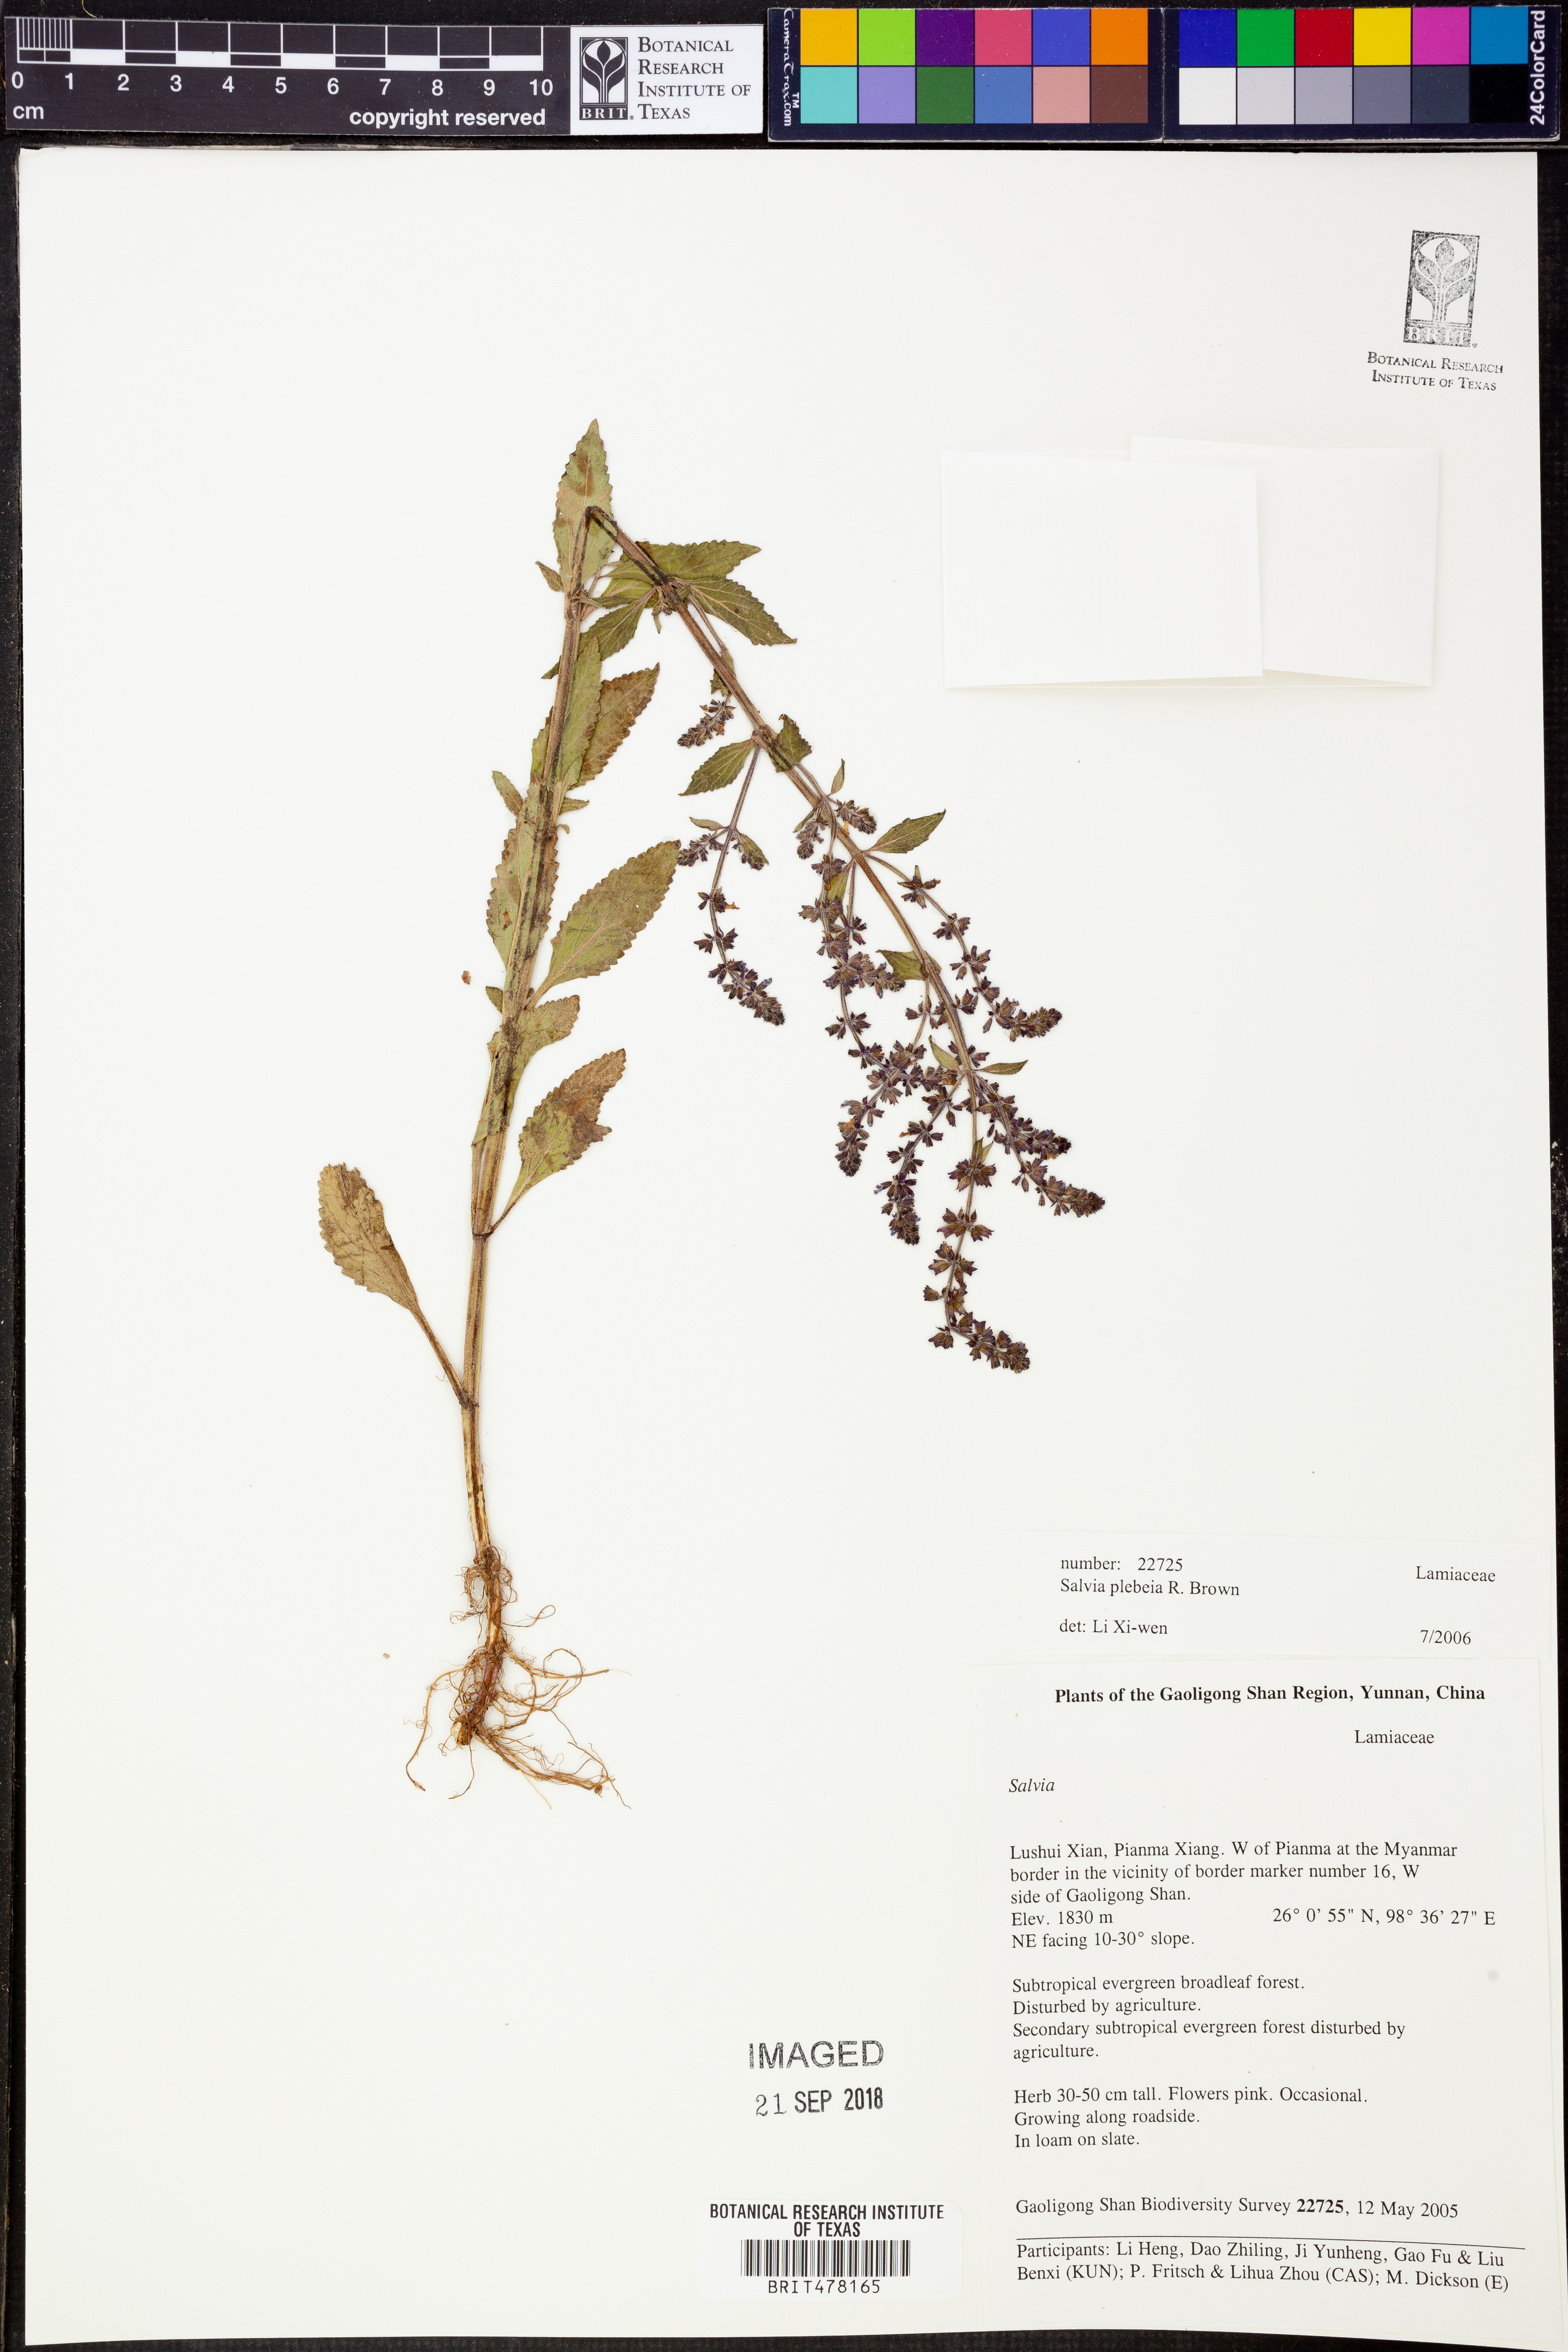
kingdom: Plantae
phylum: Tracheophyta
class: Magnoliopsida
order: Lamiales
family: Lamiaceae
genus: Salvia
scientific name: Salvia plebeia
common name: Australian sage
